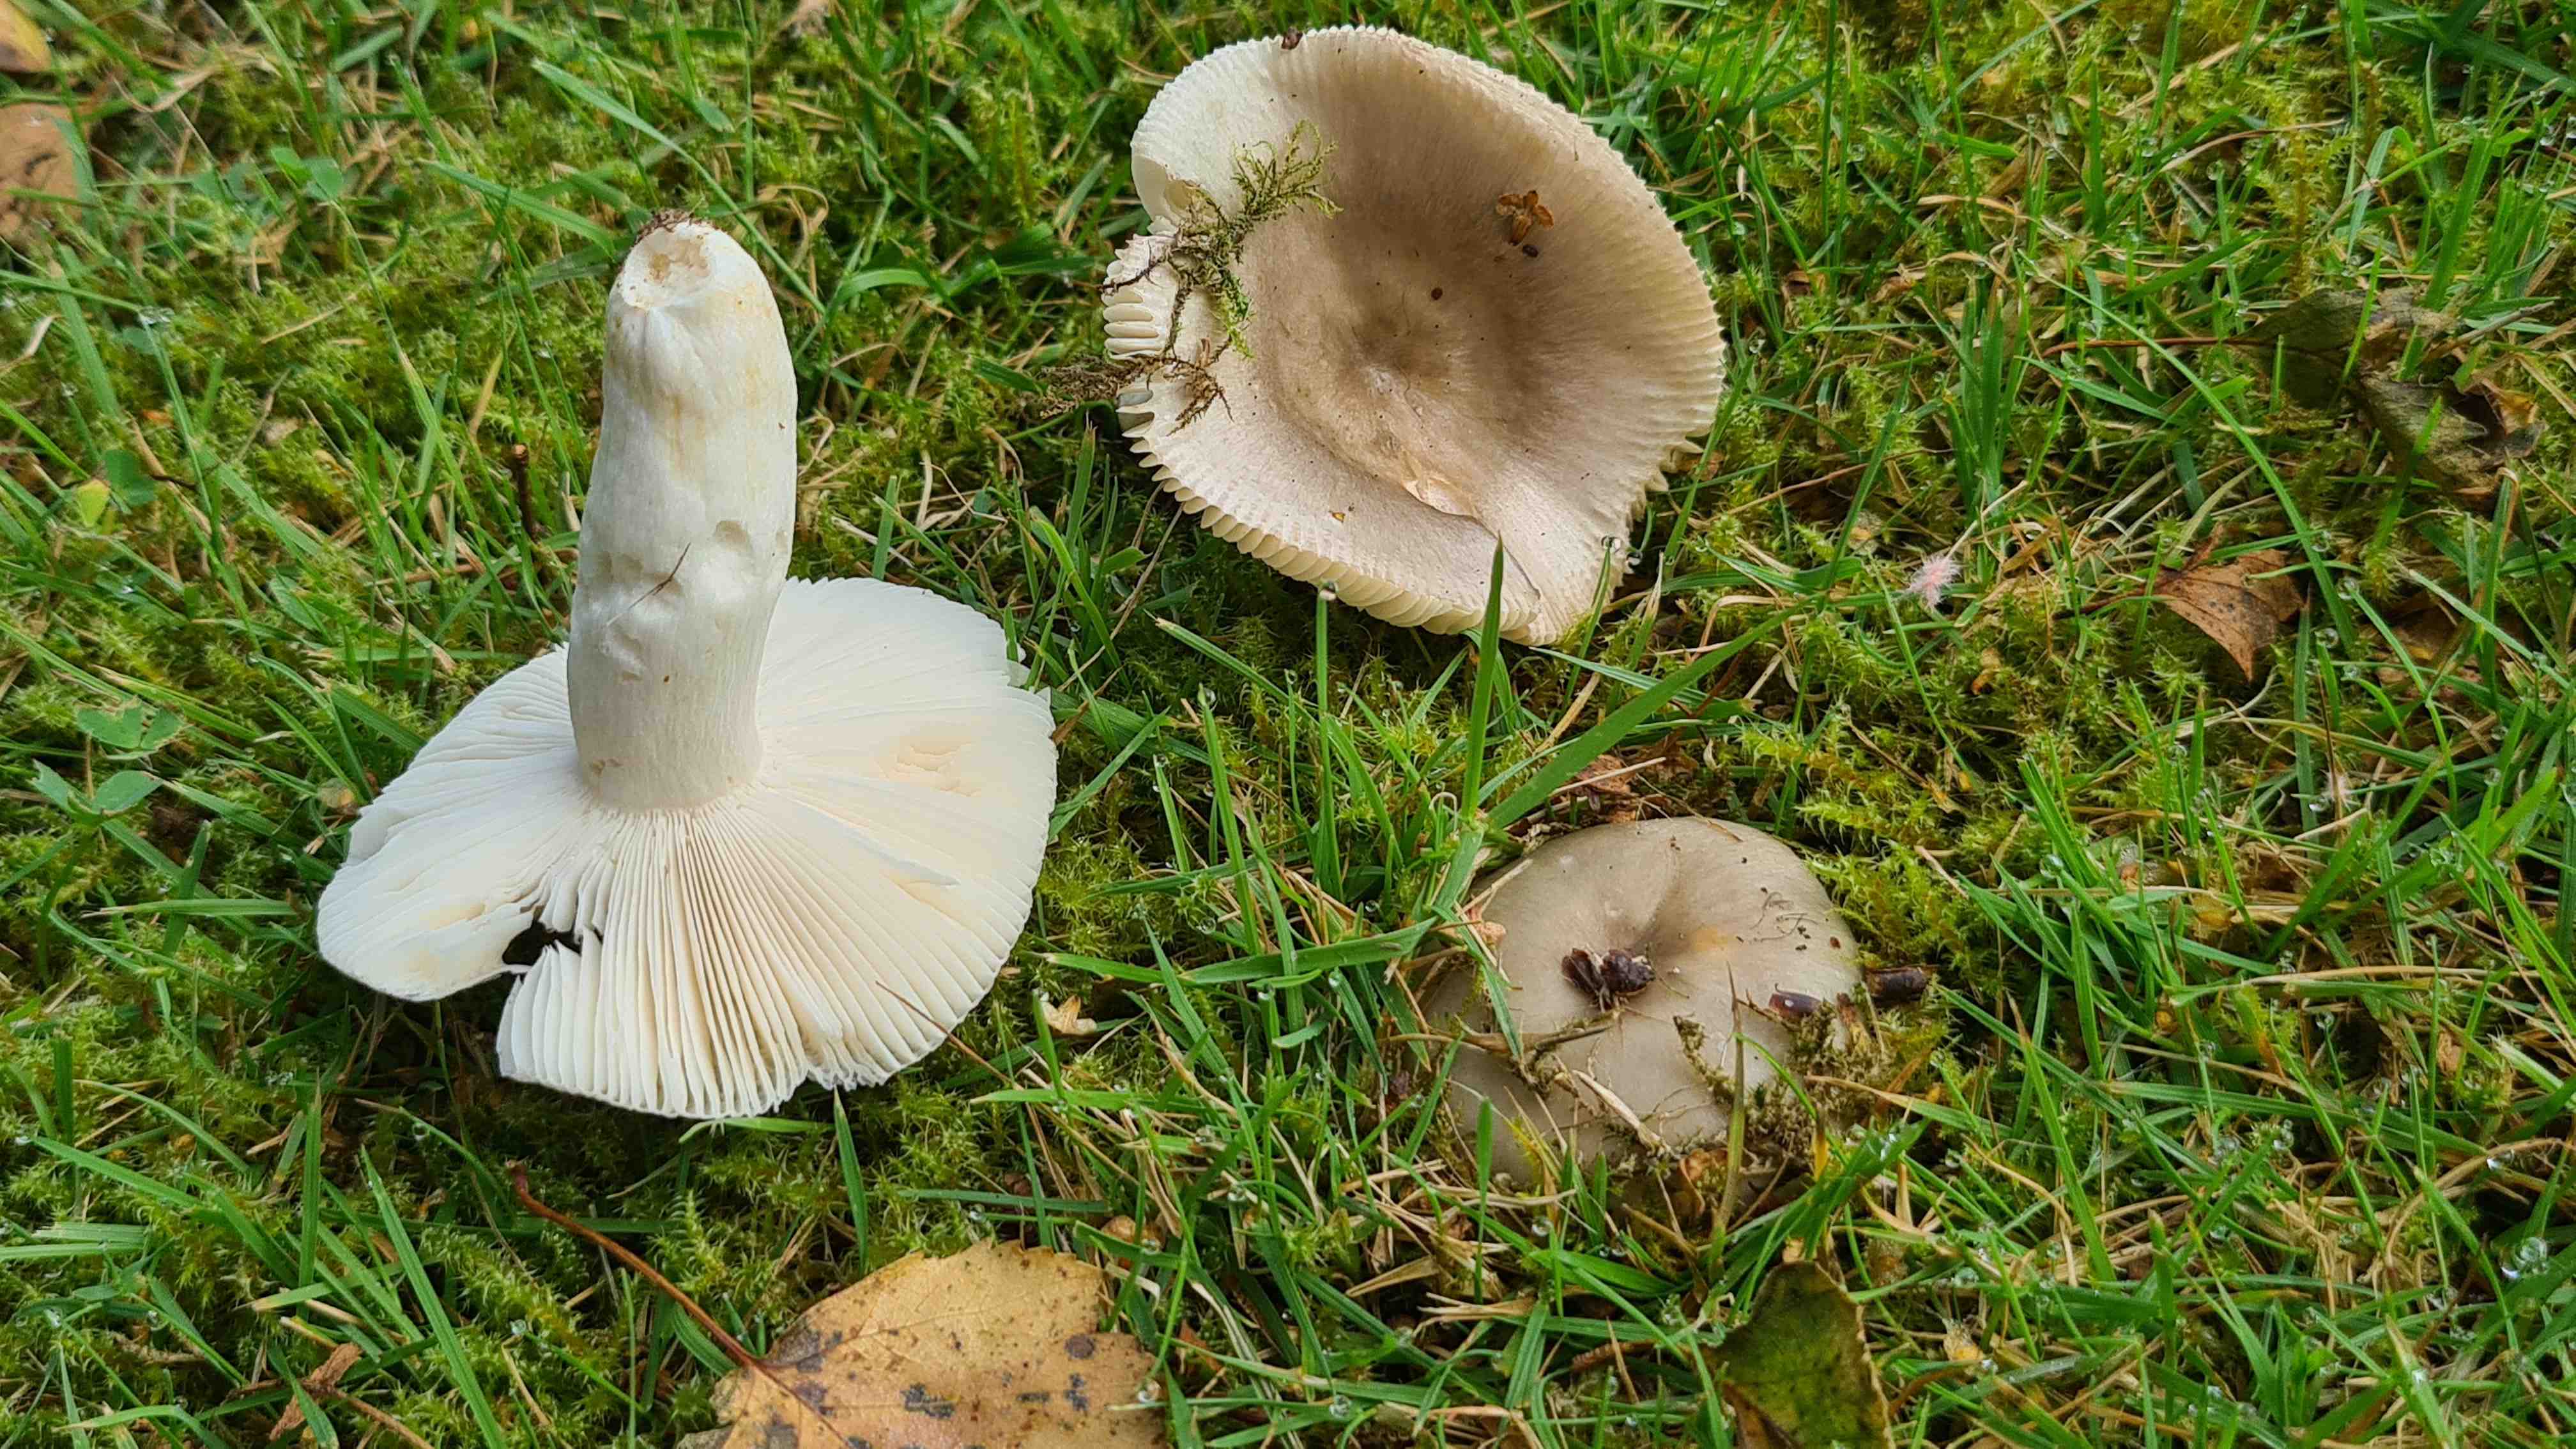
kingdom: Fungi
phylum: Basidiomycota
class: Agaricomycetes
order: Russulales
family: Russulaceae
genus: Russula
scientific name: Russula recondita
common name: mild kam-skørhat
